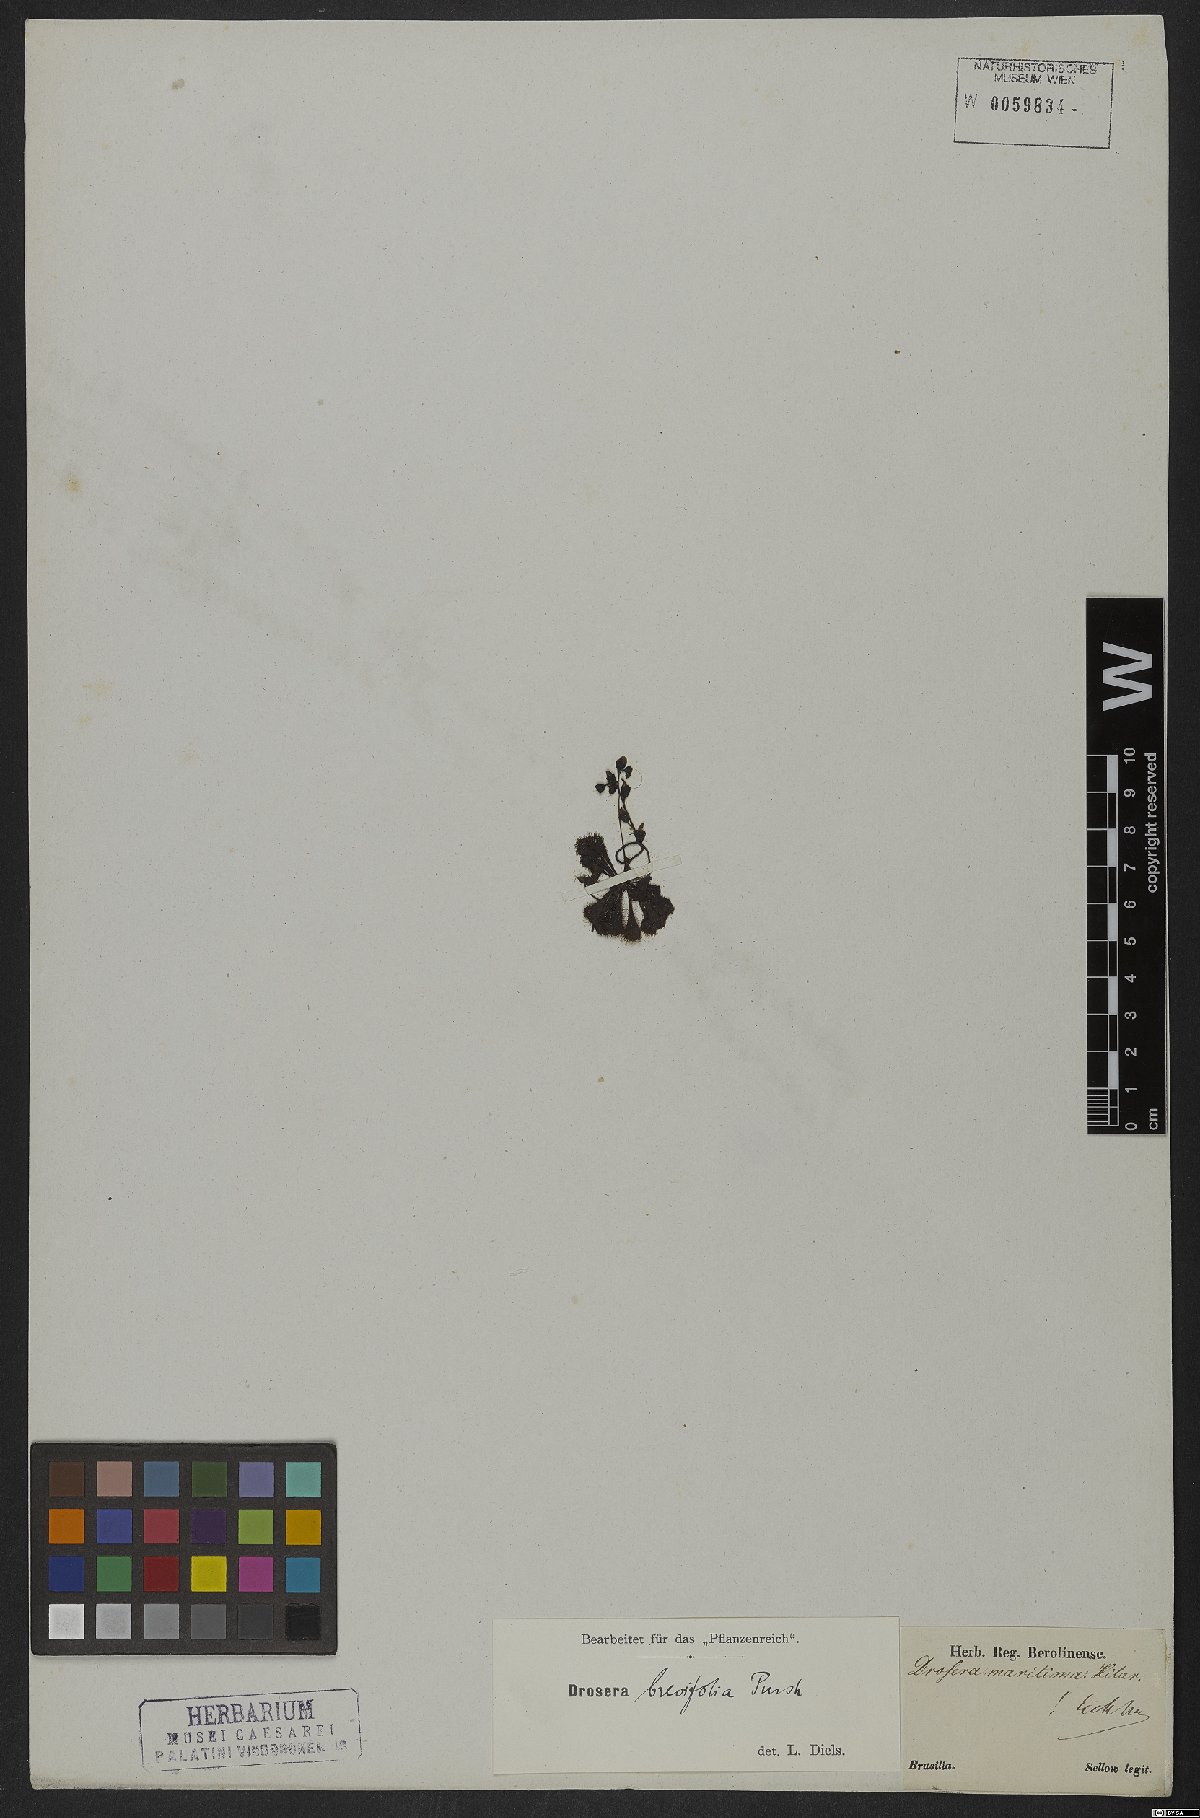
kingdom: Plantae
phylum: Tracheophyta
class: Magnoliopsida
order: Caryophyllales
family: Droseraceae
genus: Drosera
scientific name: Drosera brevifolia
